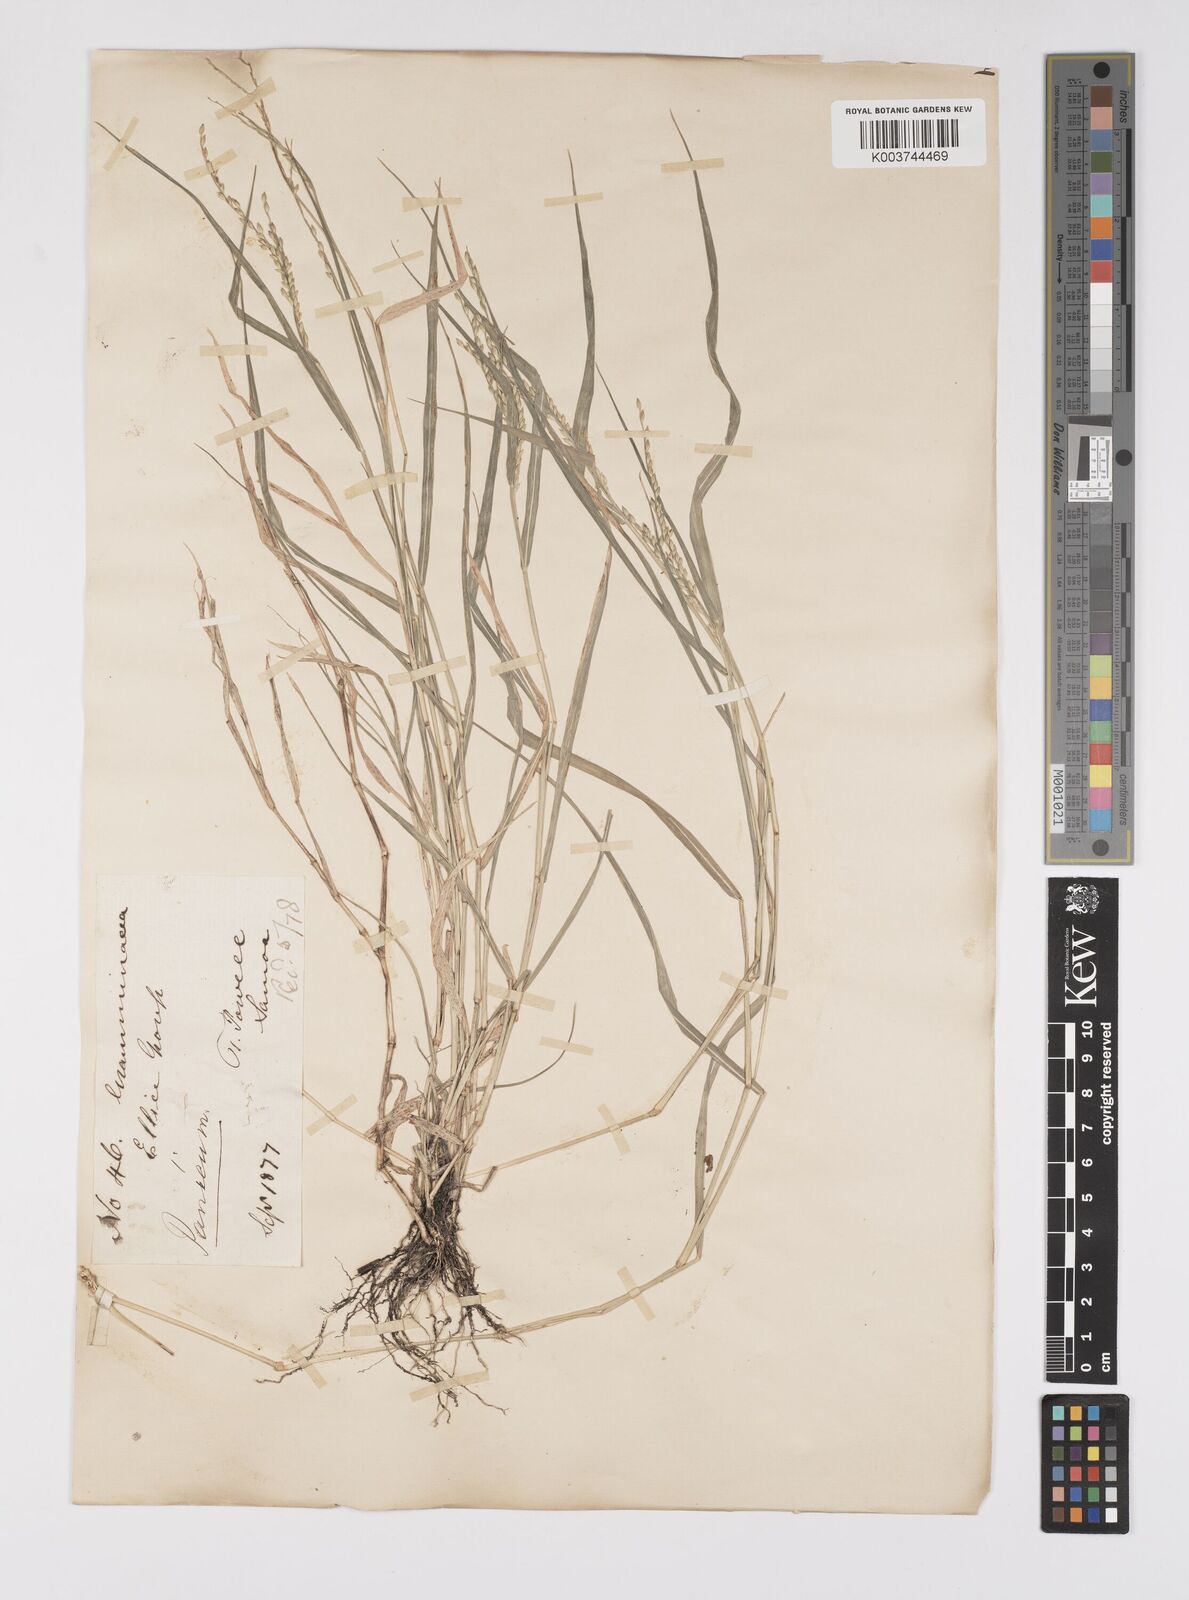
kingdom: Plantae
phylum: Tracheophyta
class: Liliopsida
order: Poales
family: Poaceae
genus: Urochloa
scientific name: Urochloa glumaris
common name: Thurston grass
